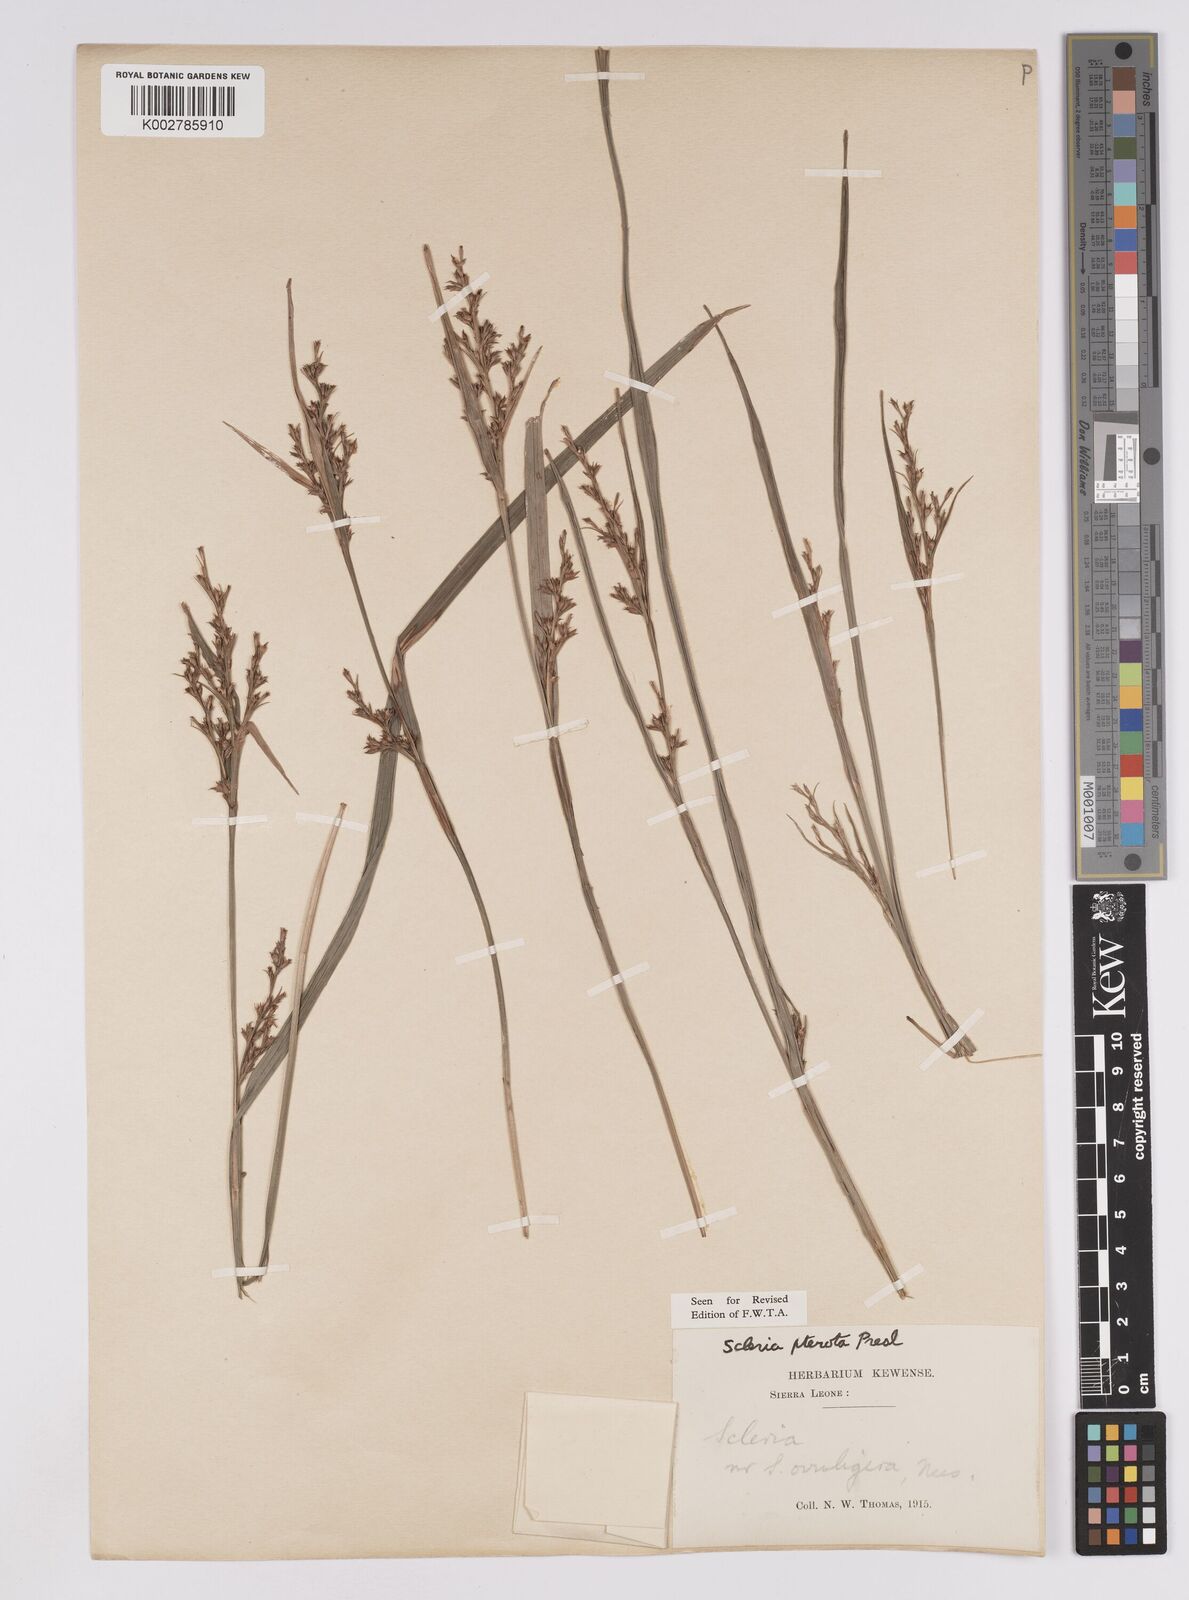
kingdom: Plantae
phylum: Tracheophyta
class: Liliopsida
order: Poales
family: Cyperaceae
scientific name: Cyperaceae
